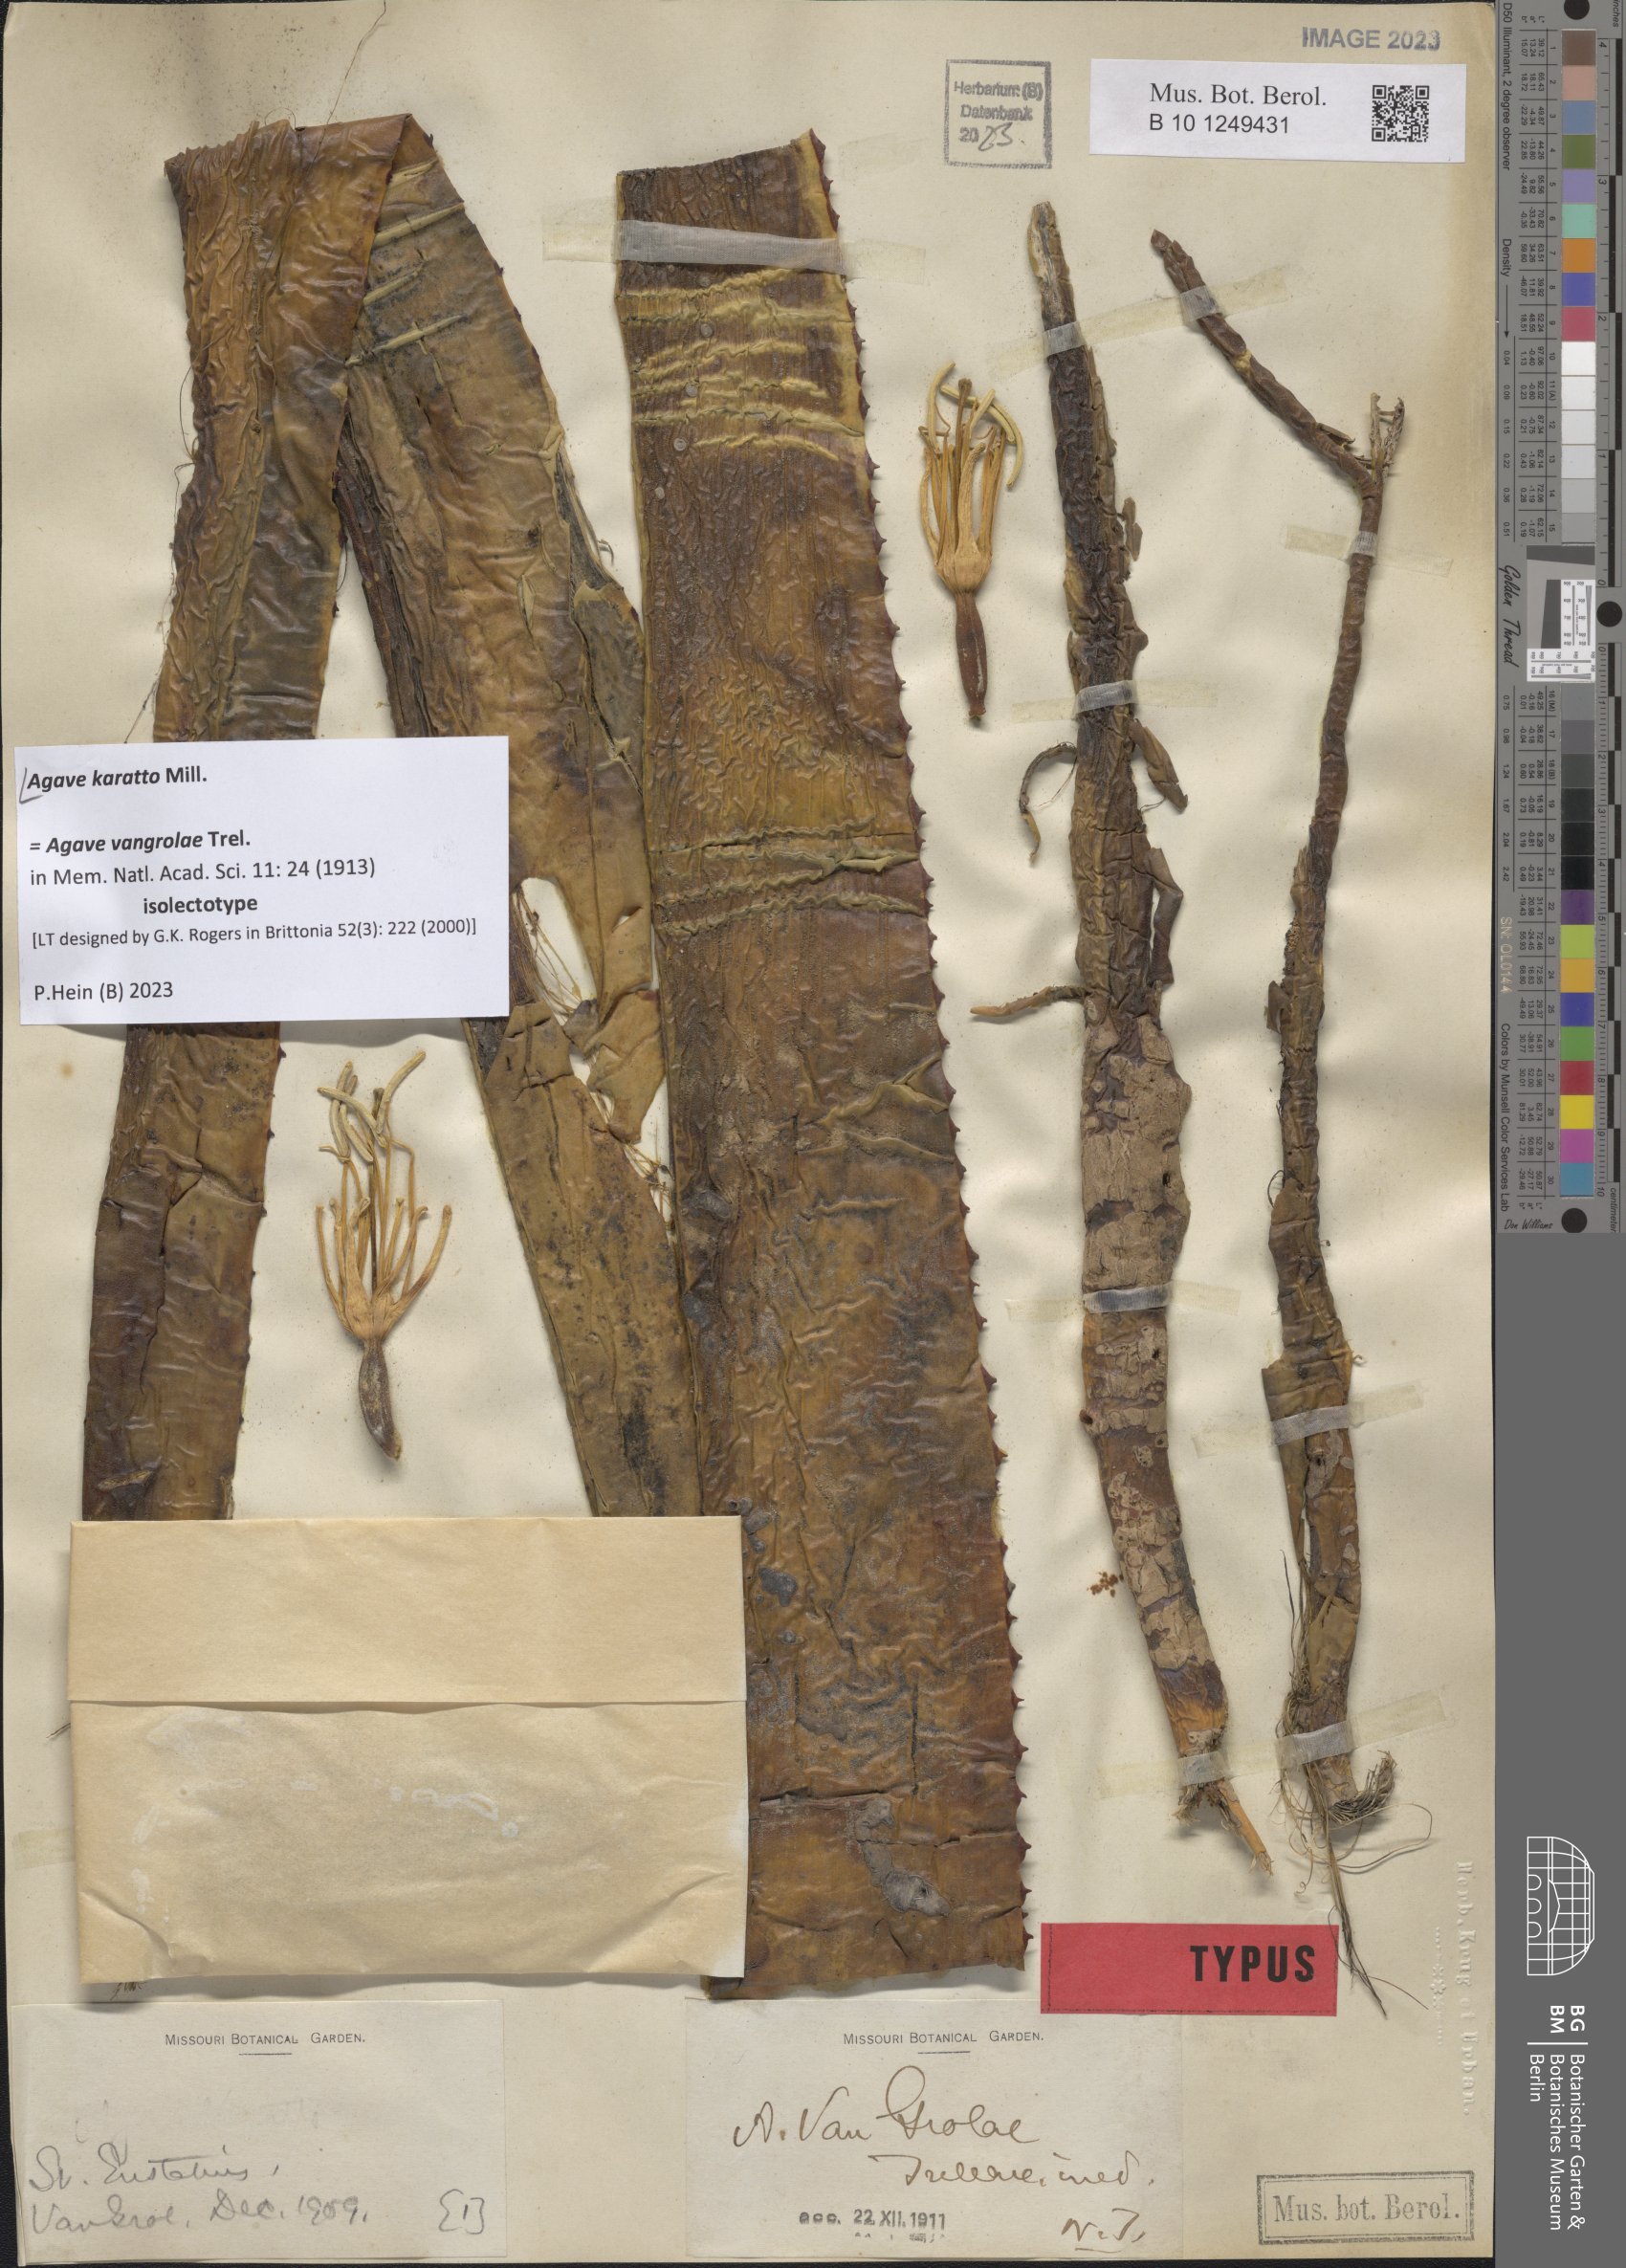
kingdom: Plantae
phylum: Tracheophyta
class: Liliopsida
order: Asparagales
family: Asparagaceae
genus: Agave
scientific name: Agave karatto
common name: Century plant
